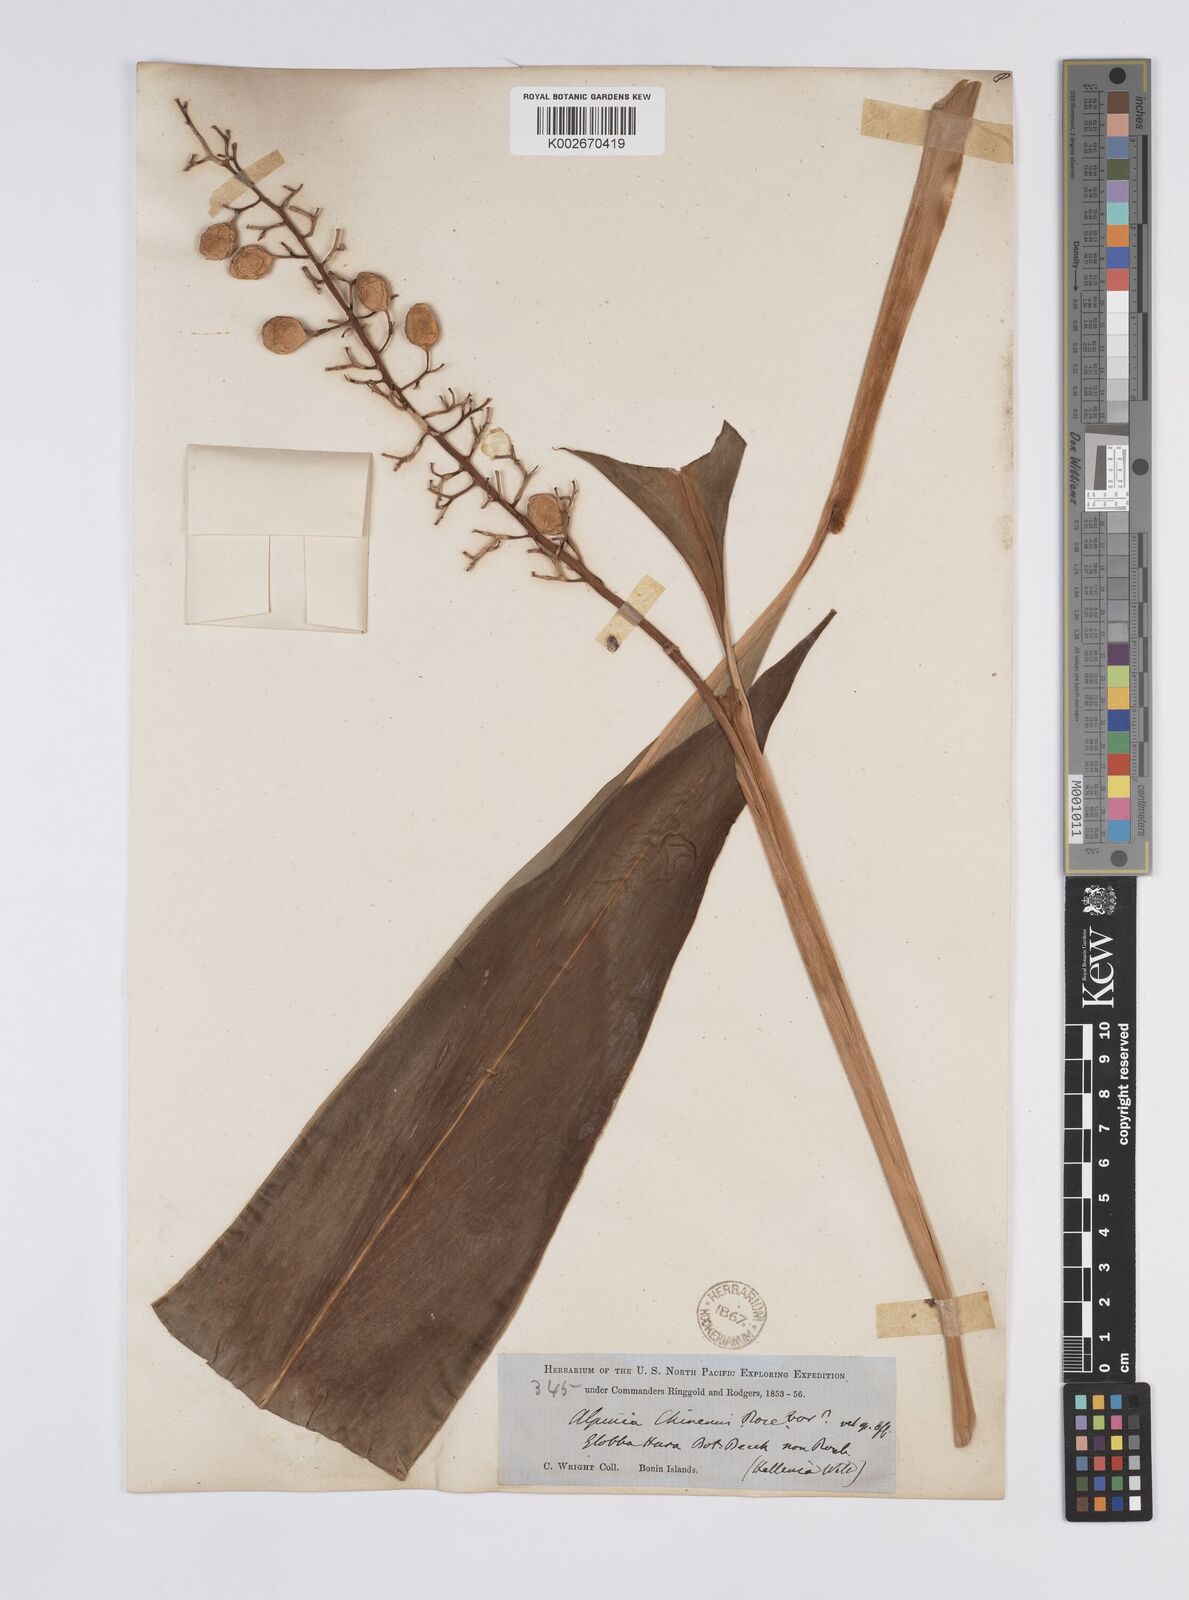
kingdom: Plantae
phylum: Tracheophyta
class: Liliopsida
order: Zingiberales
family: Zingiberaceae
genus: Alpinia
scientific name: Alpinia boninsimensis
